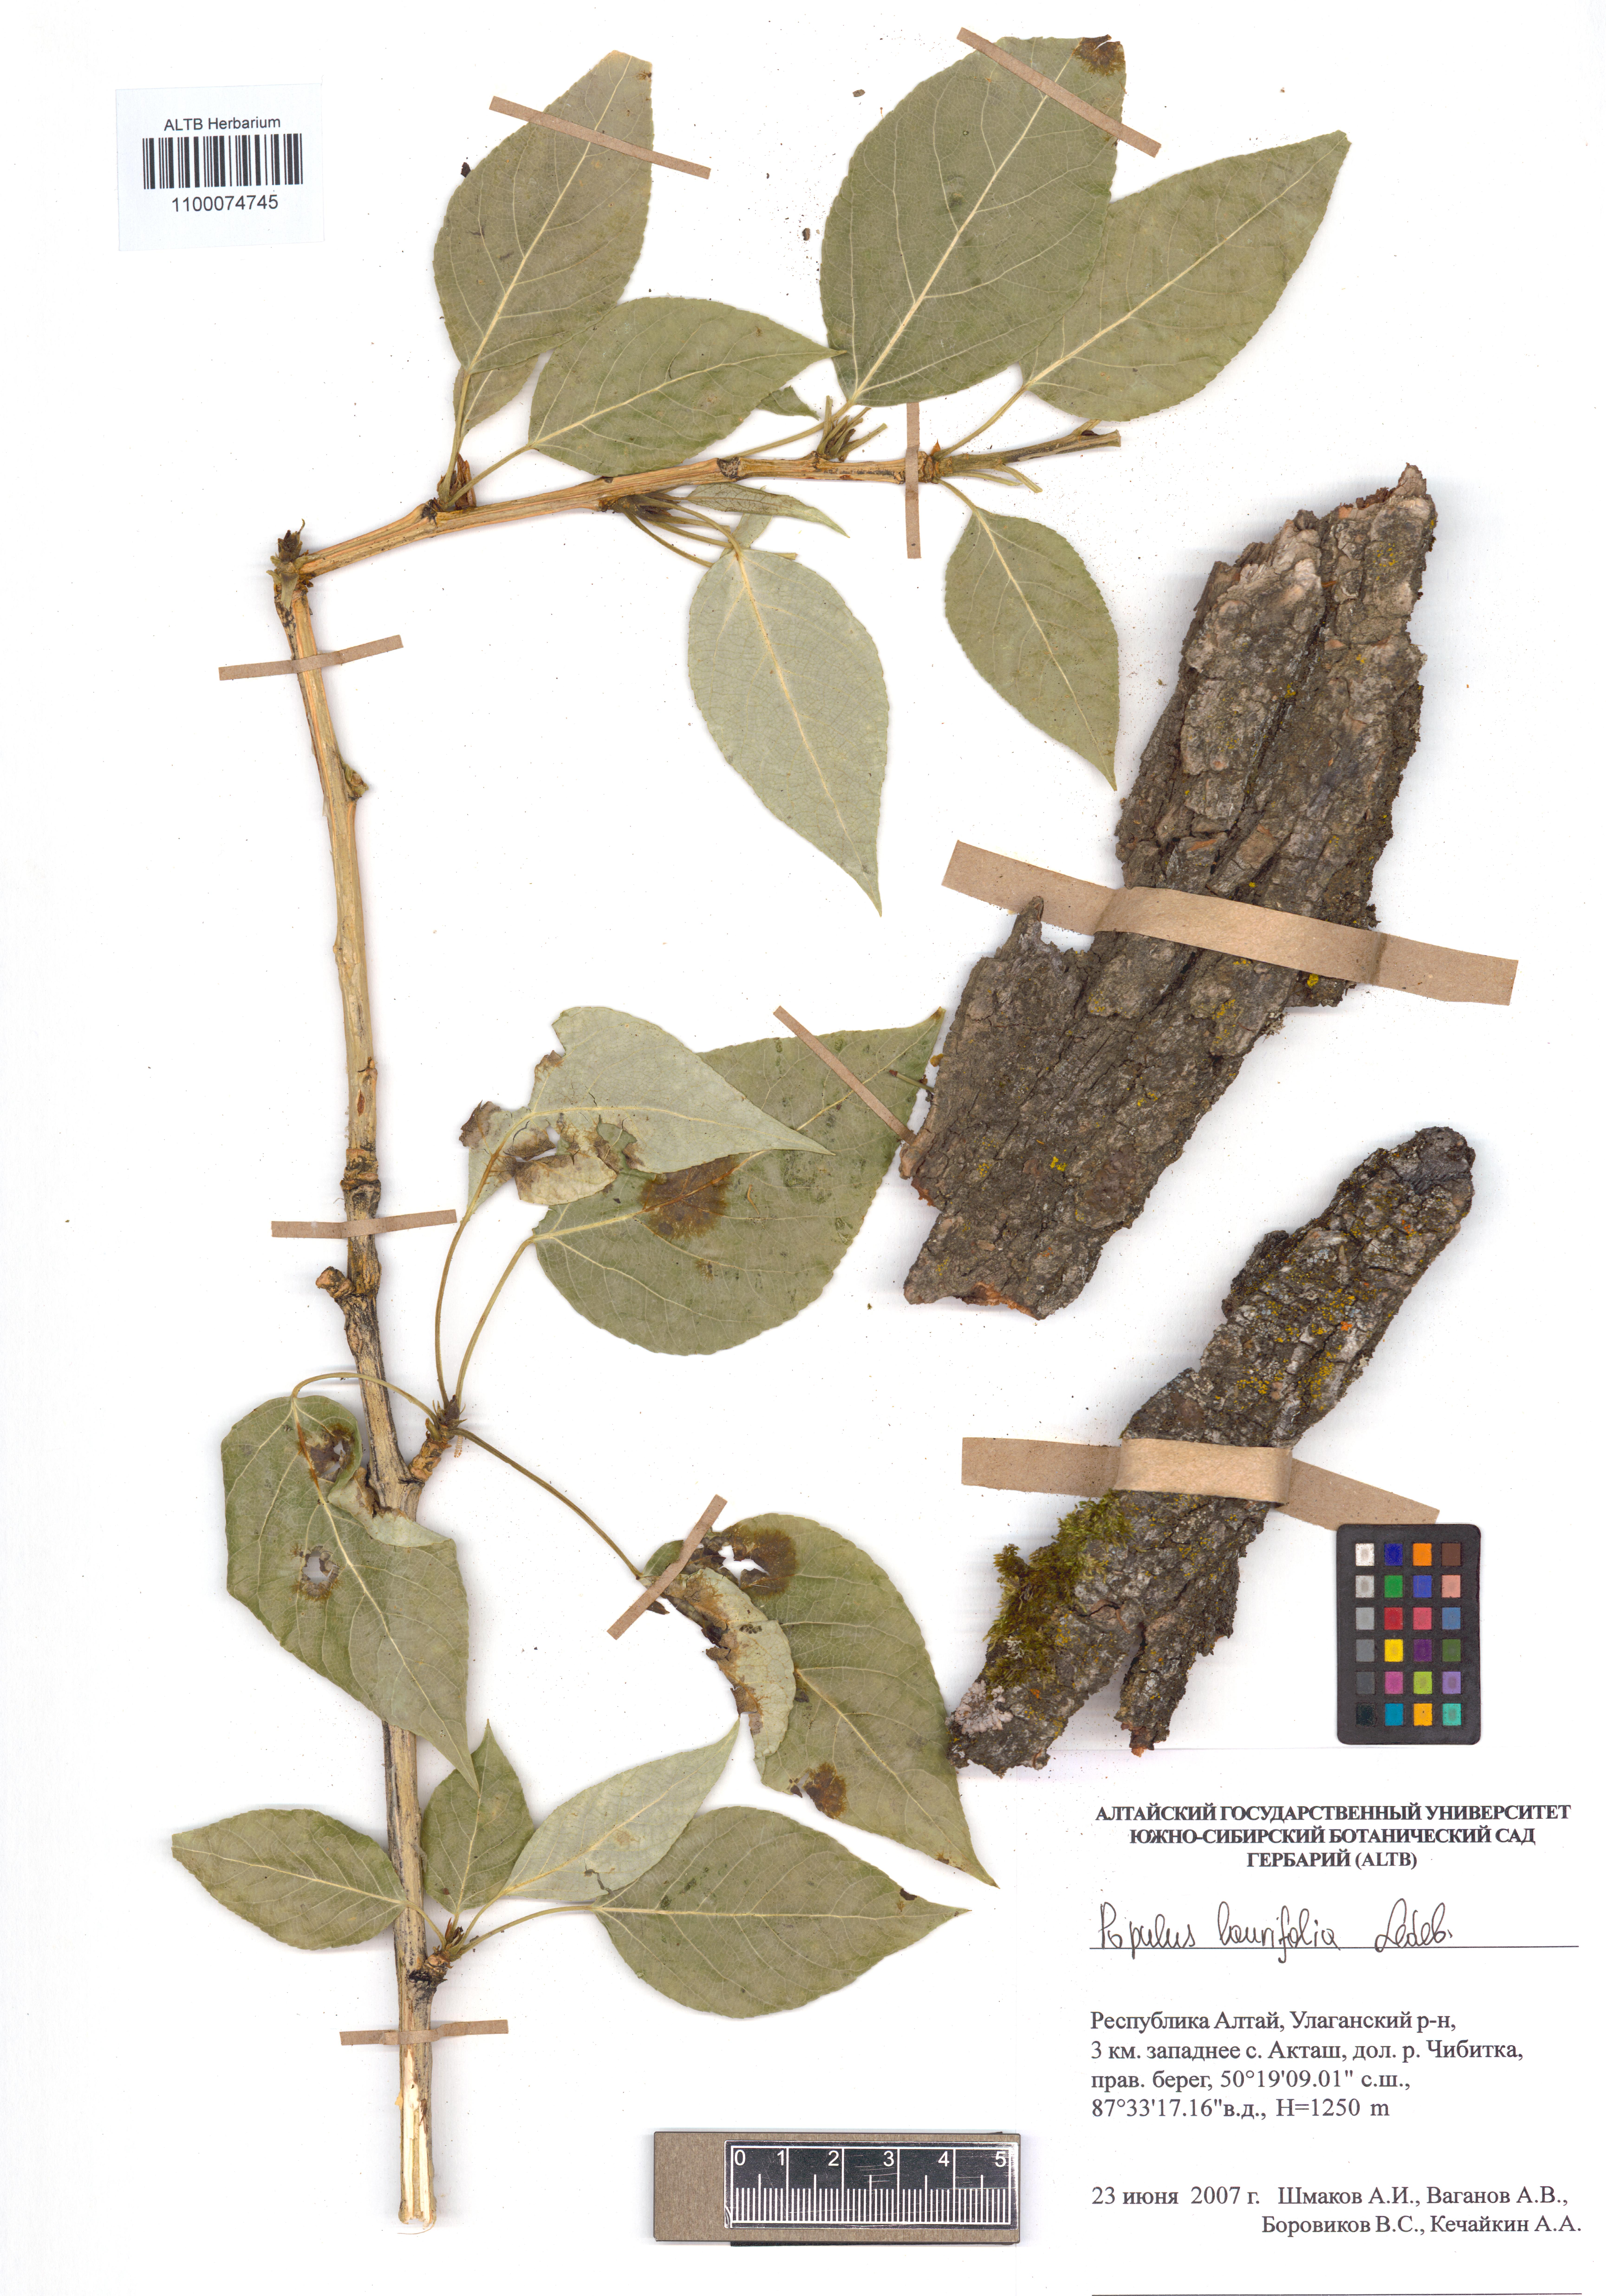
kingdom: Plantae
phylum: Tracheophyta
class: Magnoliopsida
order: Malpighiales
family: Salicaceae
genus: Populus
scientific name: Populus laurifolia
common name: Laurel-leaf poplar
